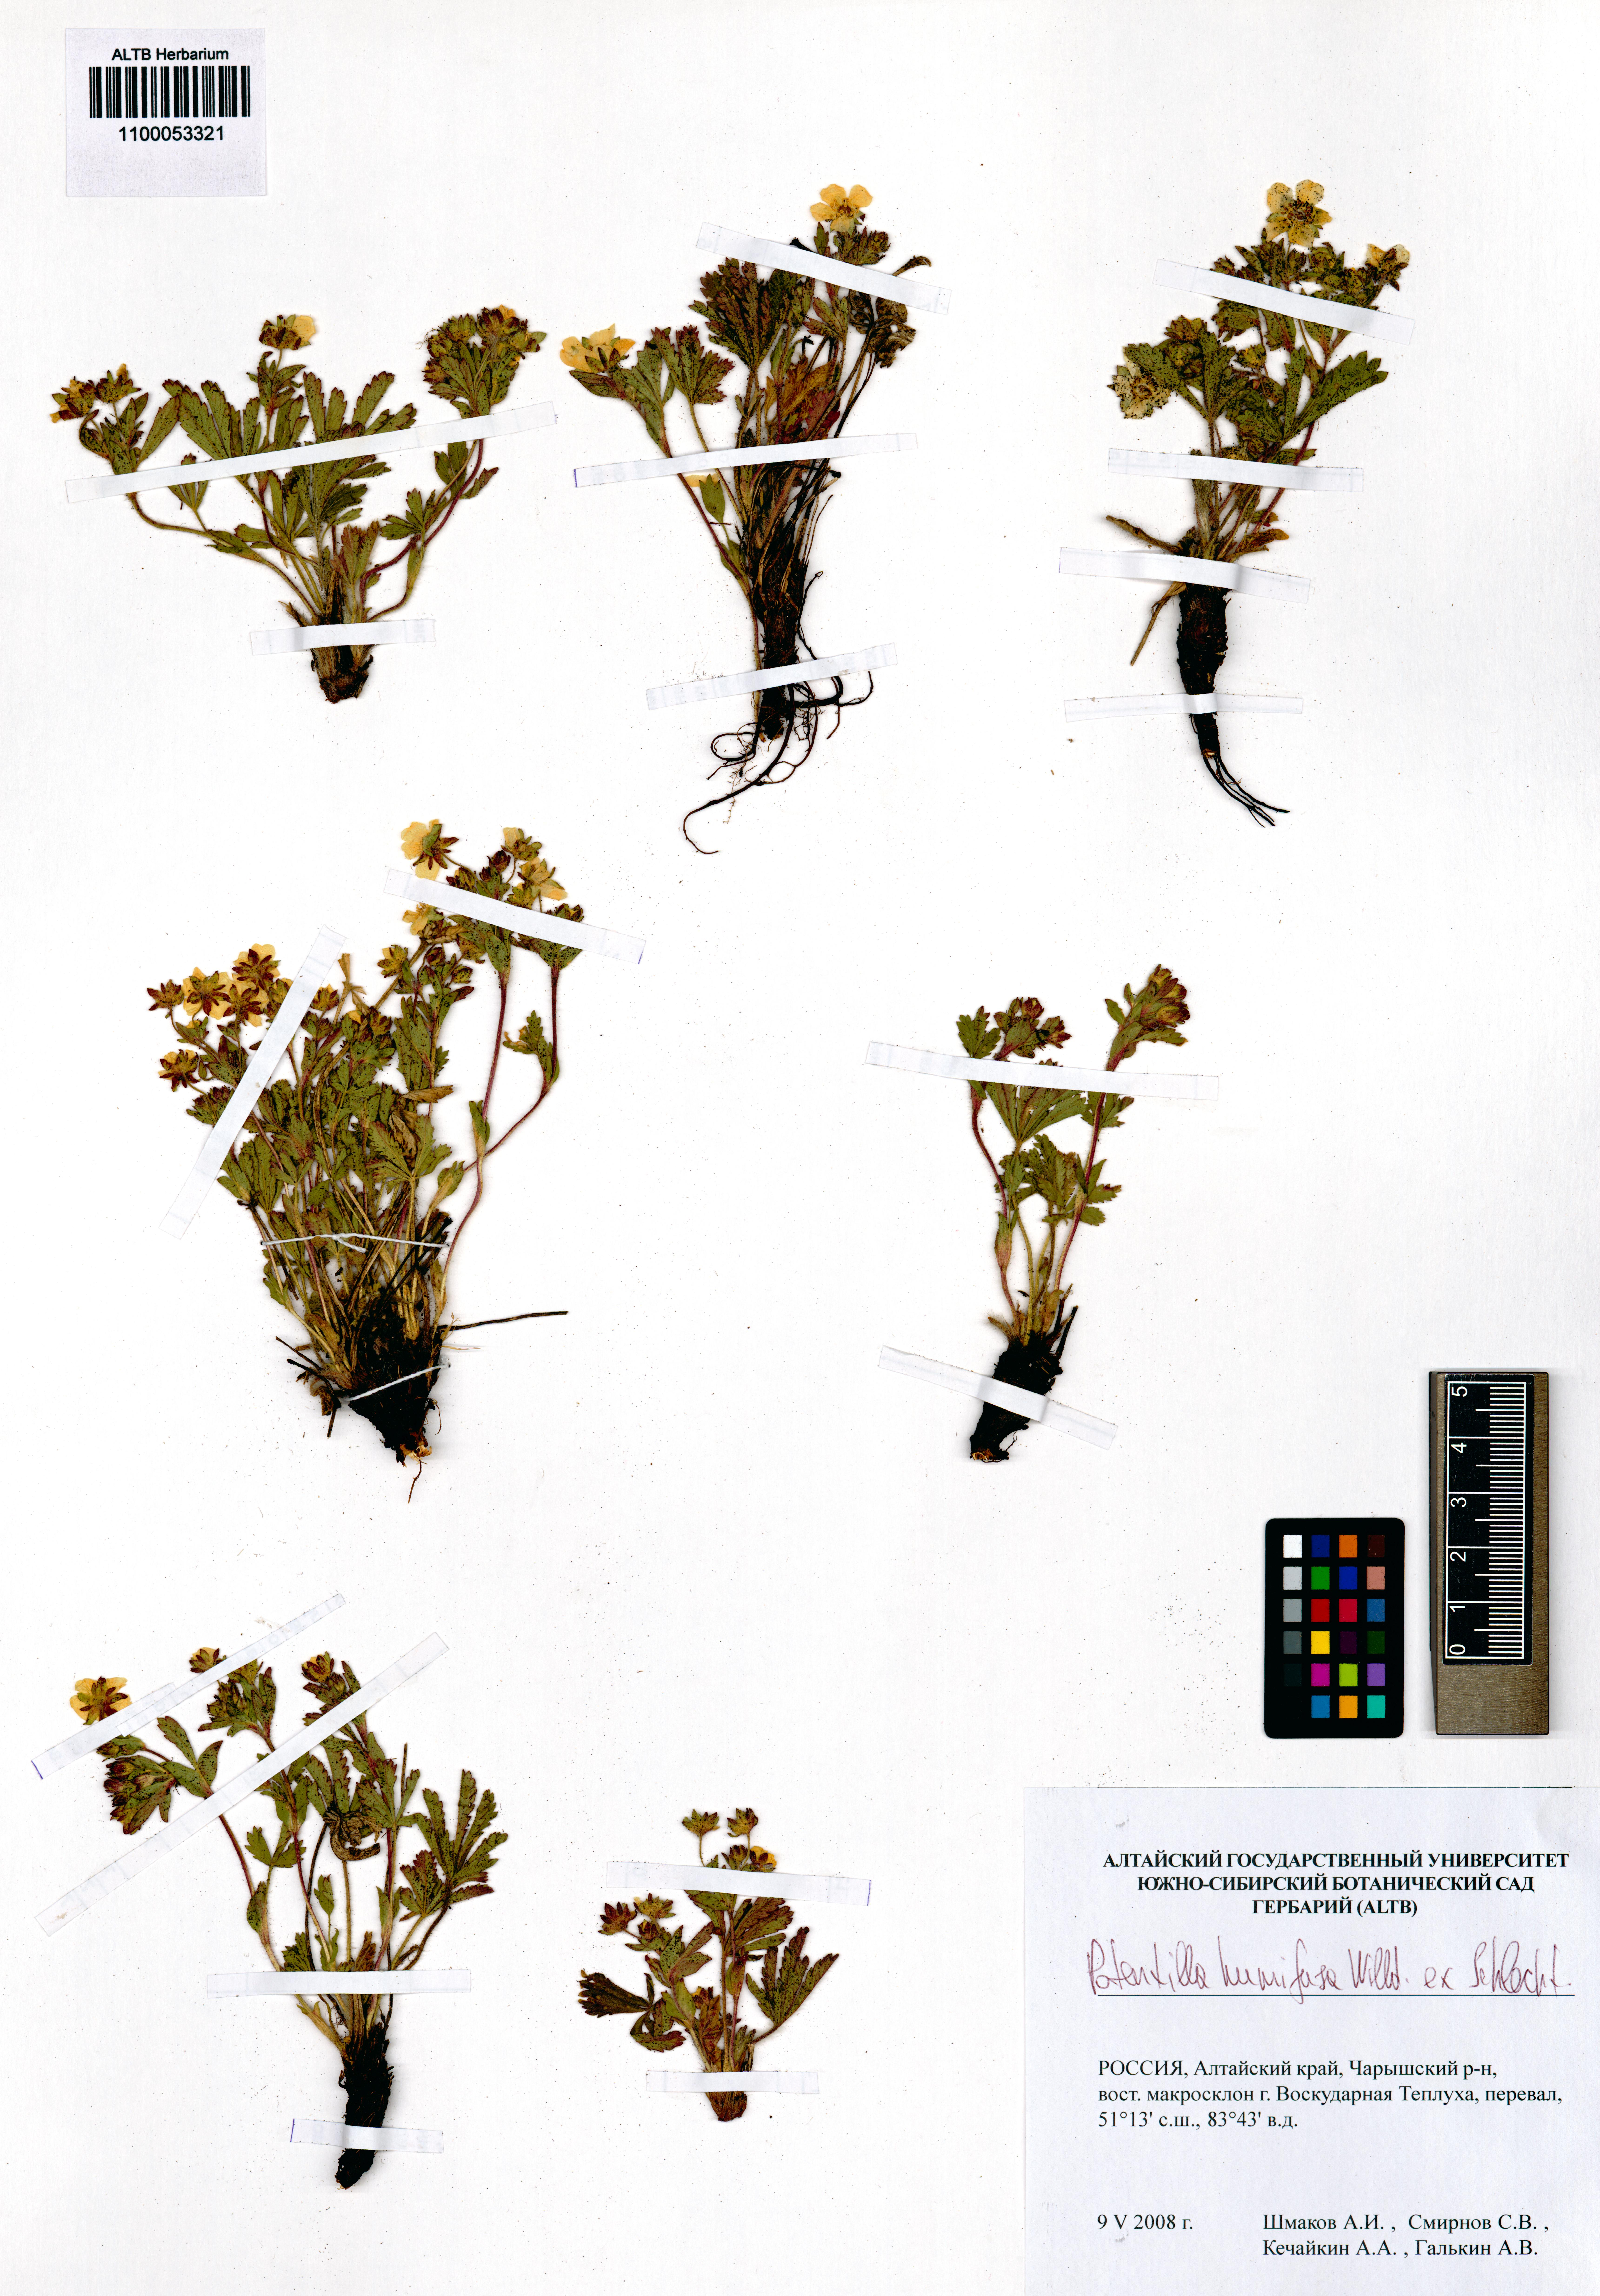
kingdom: Plantae
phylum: Tracheophyta
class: Magnoliopsida
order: Rosales
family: Rosaceae
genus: Potentilla
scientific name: Potentilla humifusa
